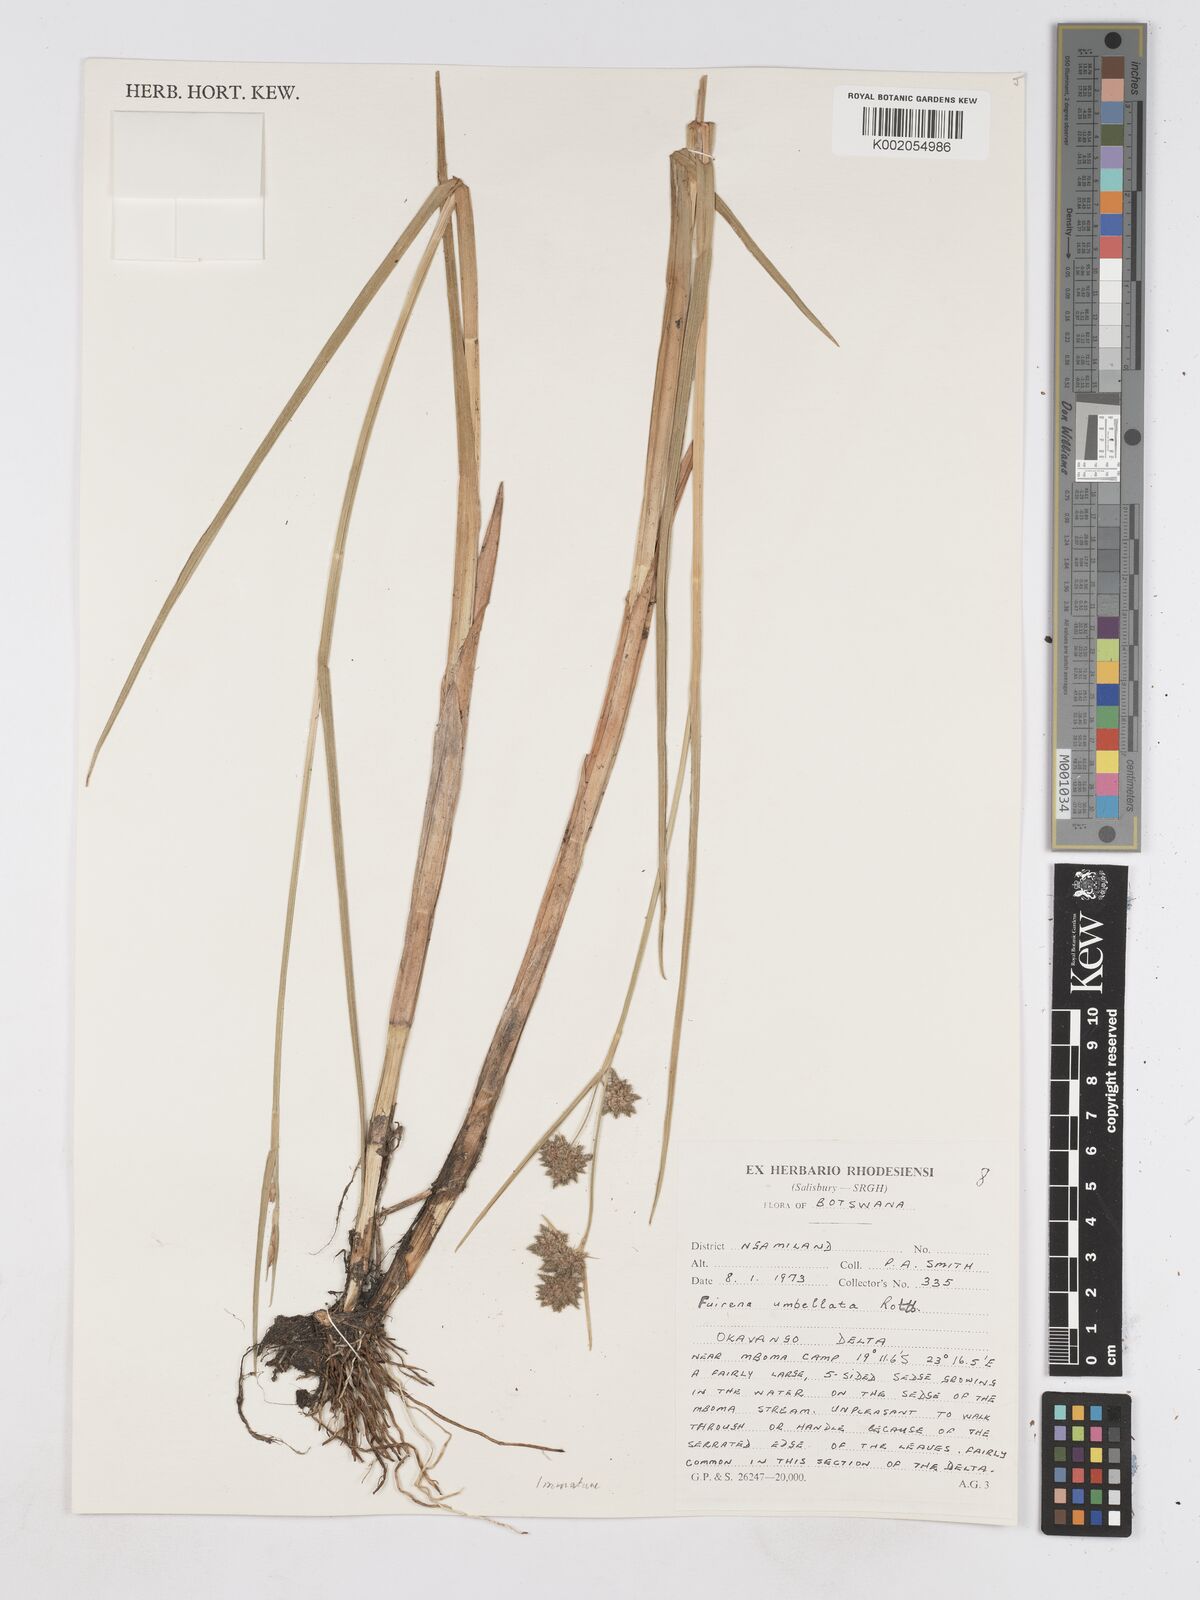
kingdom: Plantae
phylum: Tracheophyta
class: Liliopsida
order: Poales
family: Cyperaceae
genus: Fuirena
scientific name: Fuirena umbellata
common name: Yefen
